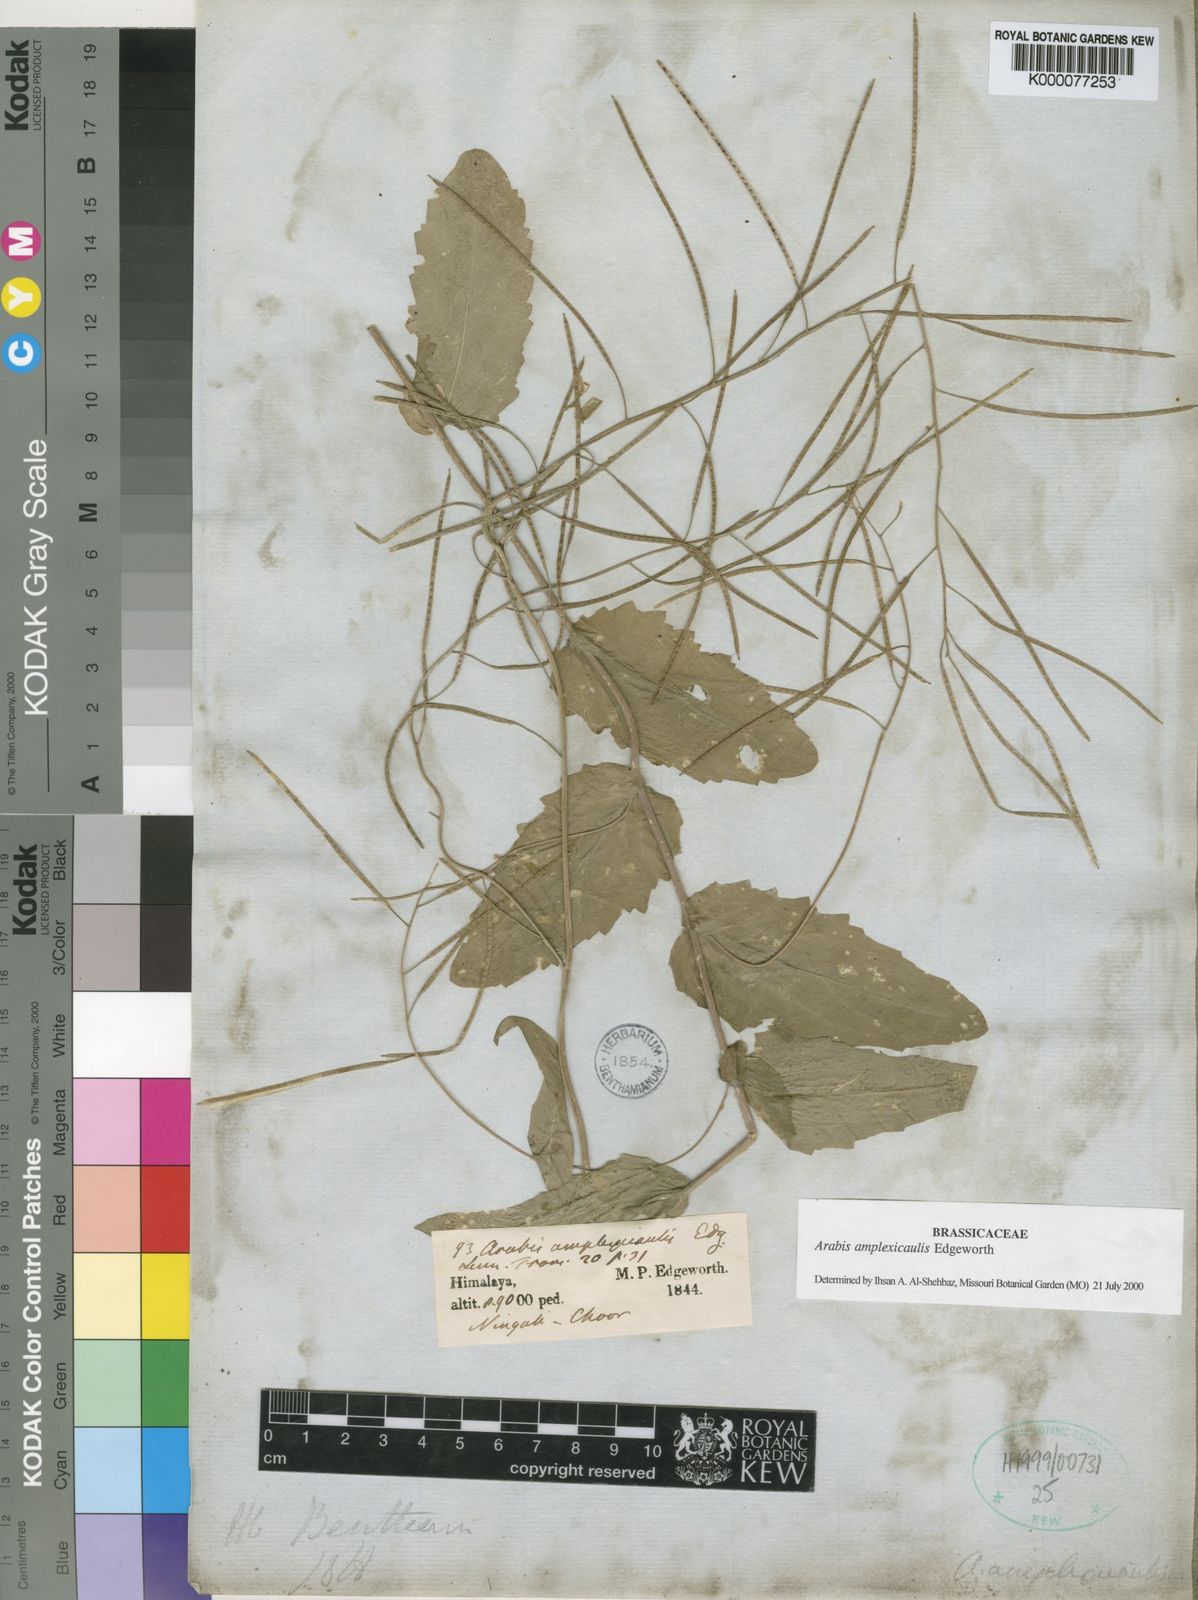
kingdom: Plantae
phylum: Tracheophyta
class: Magnoliopsida
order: Brassicales
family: Brassicaceae
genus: Arabis
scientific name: Arabis amplexicaulis
